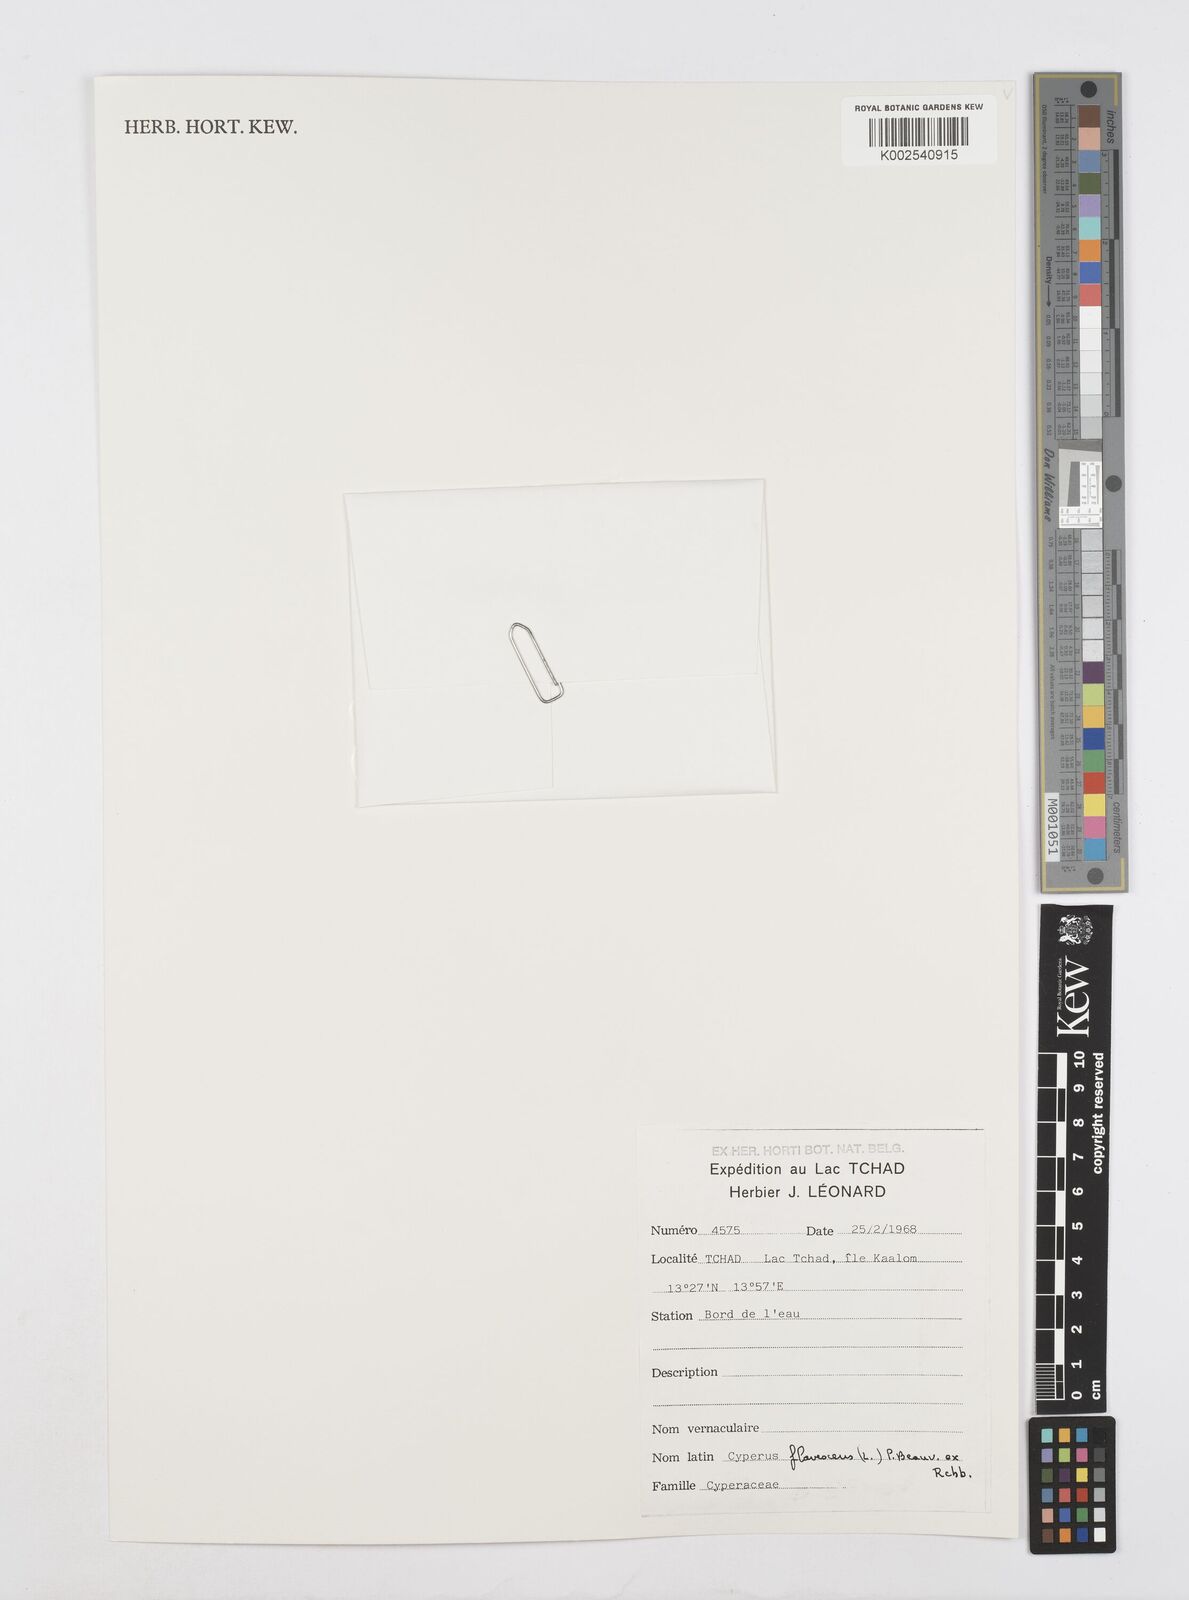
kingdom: Plantae
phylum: Tracheophyta
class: Liliopsida
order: Poales
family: Cyperaceae
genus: Cyperus
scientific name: Cyperus flavescens
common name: Yellow galingale
